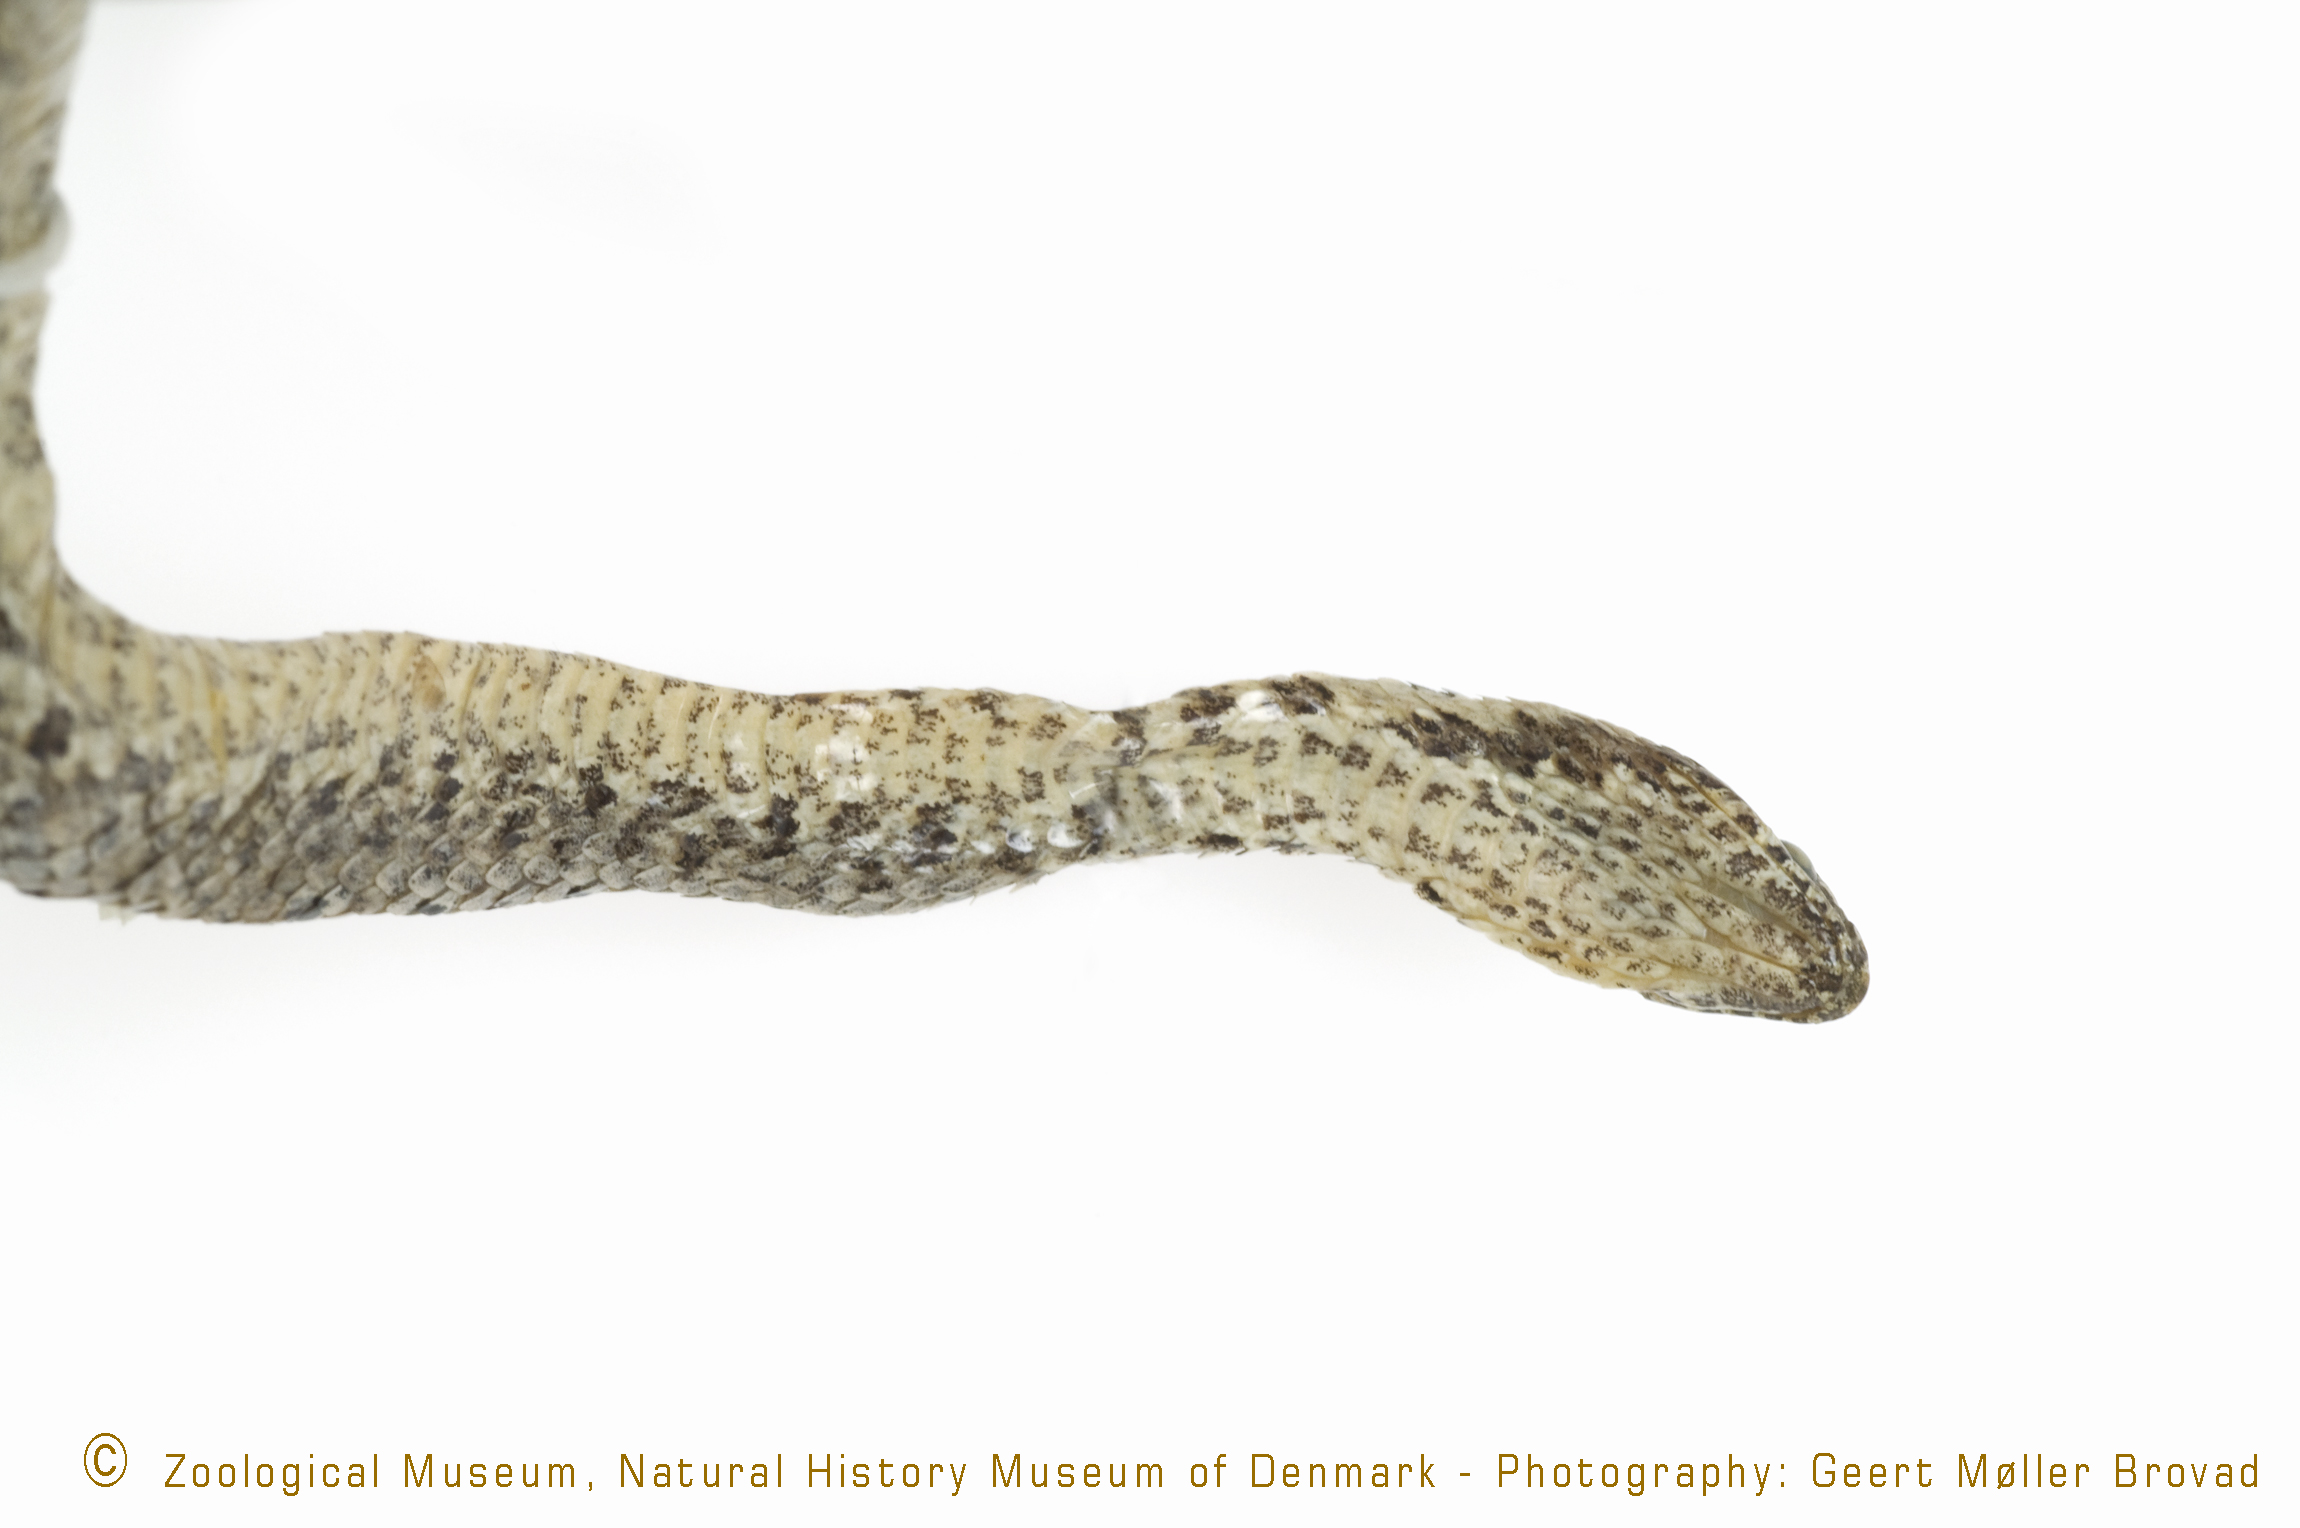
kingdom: Animalia
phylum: Chordata
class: Squamata
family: Colubridae
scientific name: Colubridae
